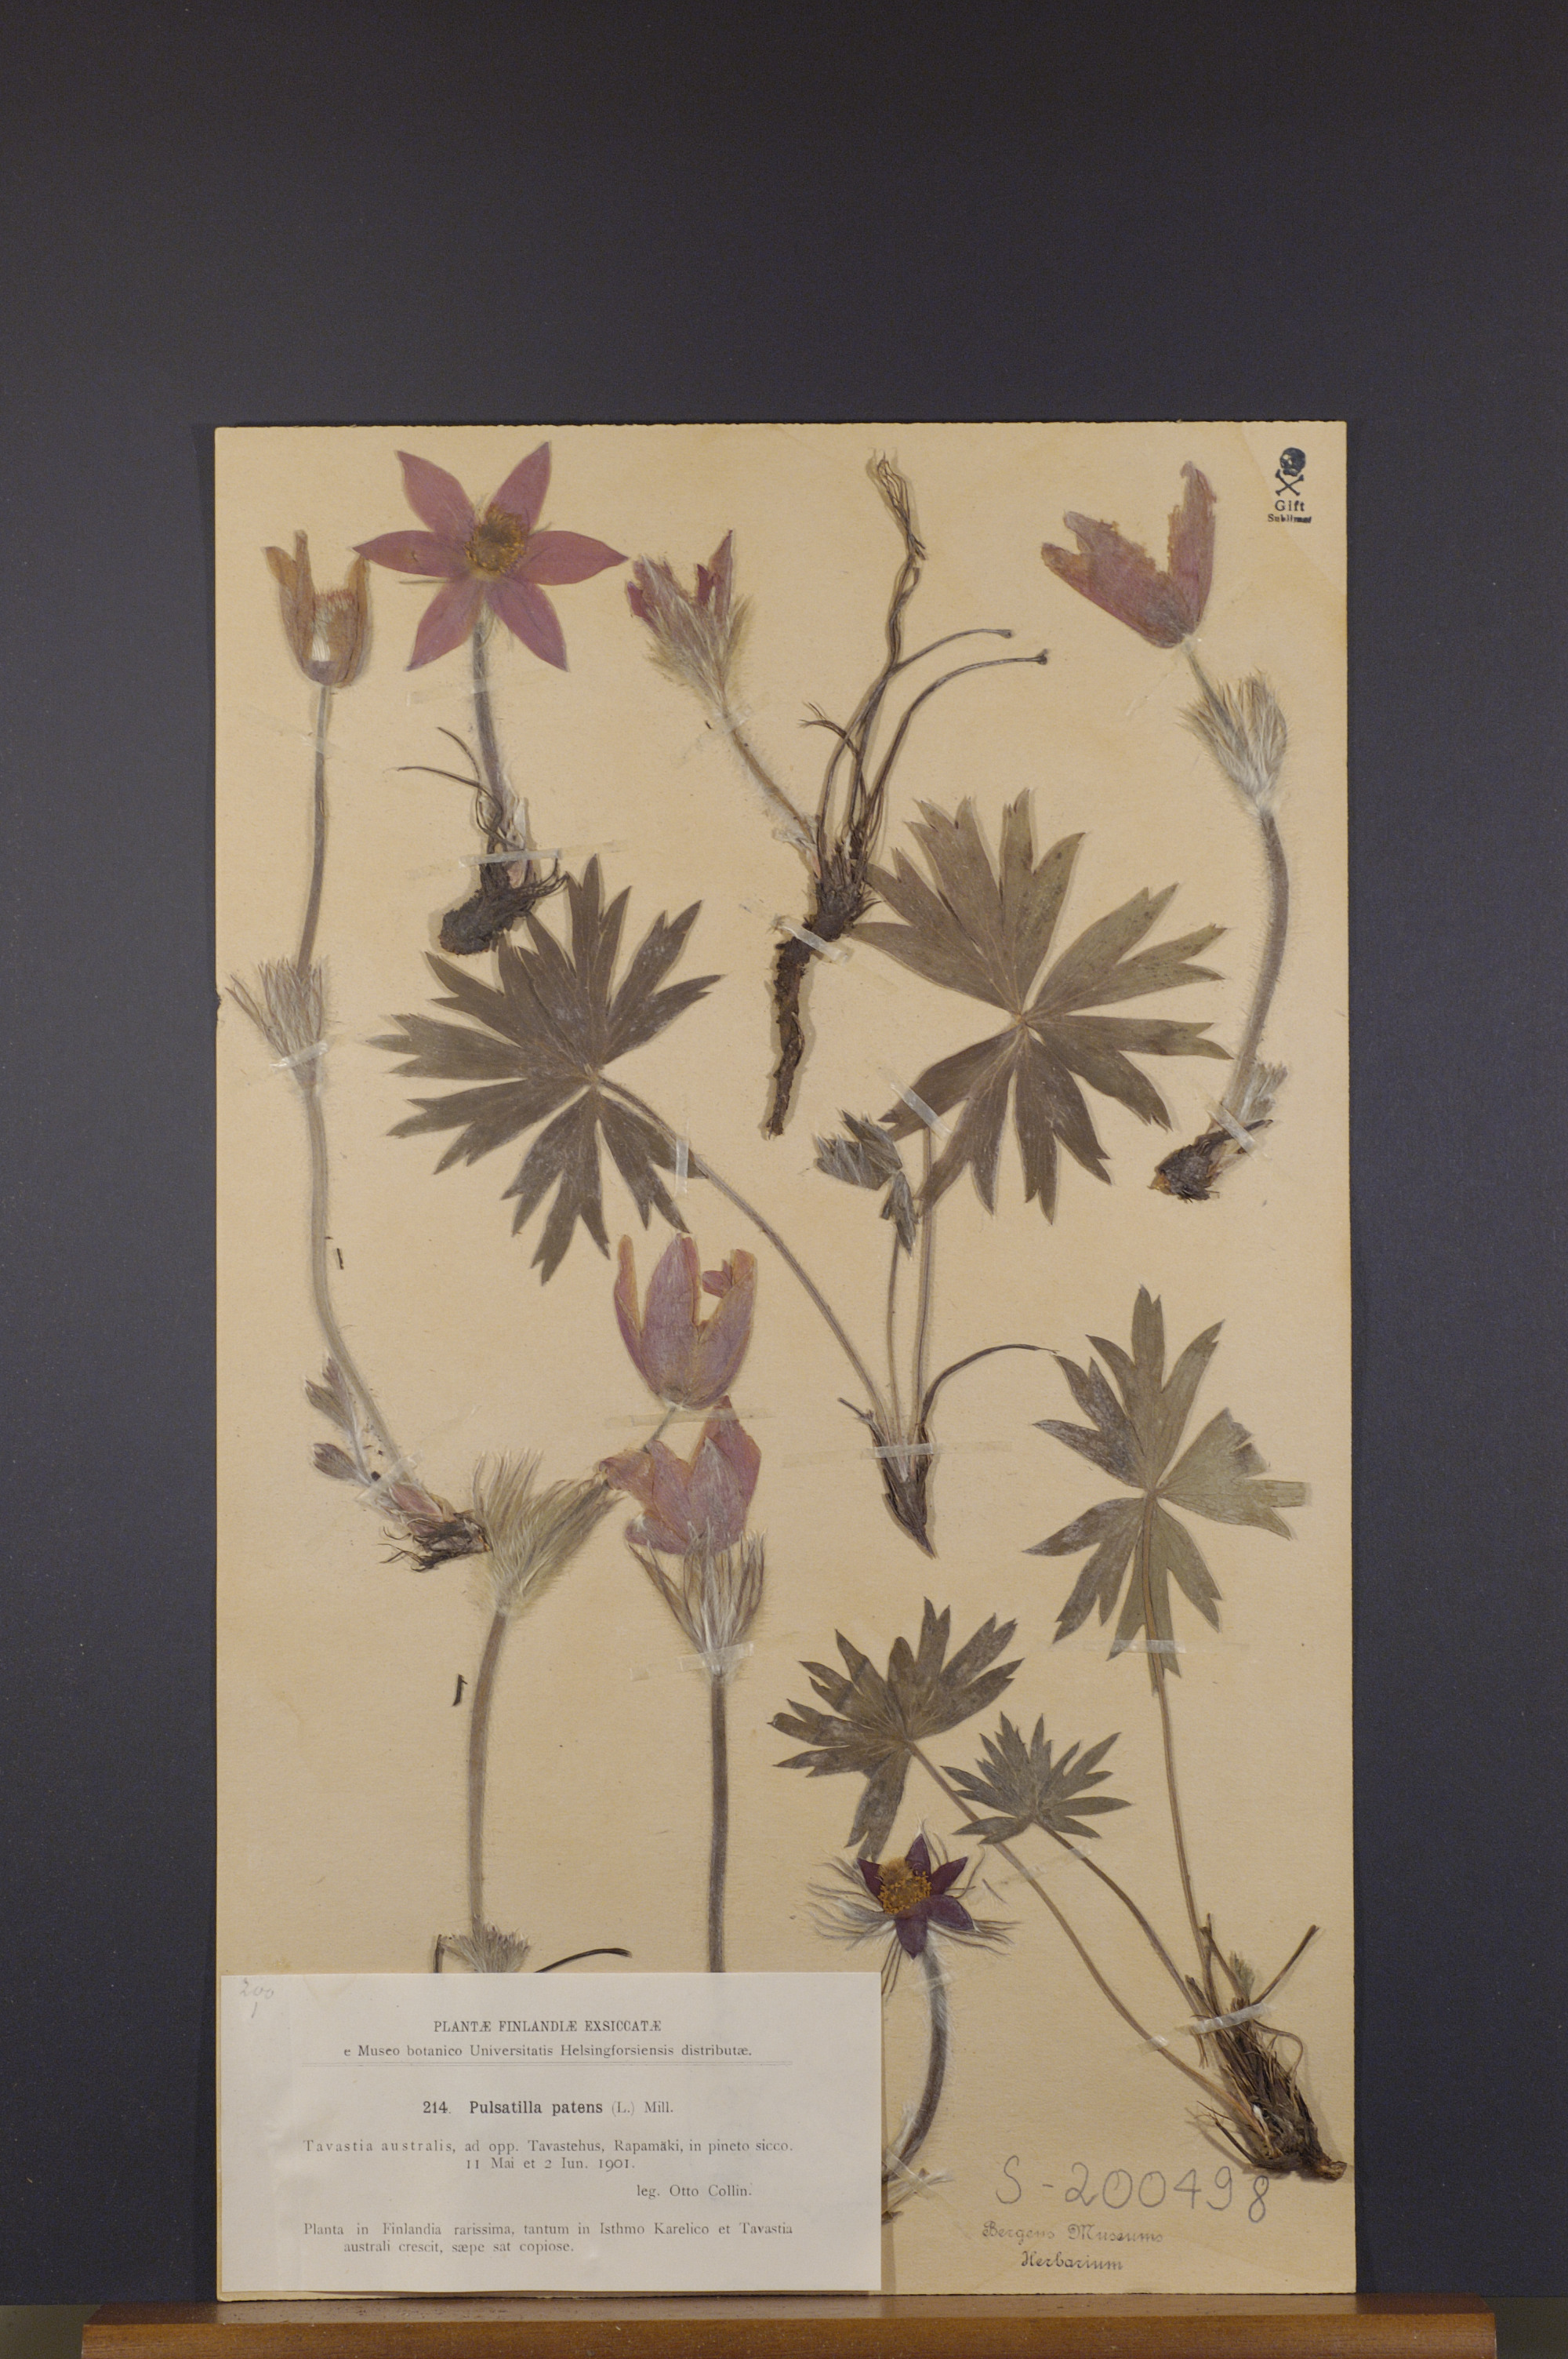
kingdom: Plantae
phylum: Tracheophyta
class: Magnoliopsida
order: Ranunculales
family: Ranunculaceae
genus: Pulsatilla
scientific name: Pulsatilla patens
